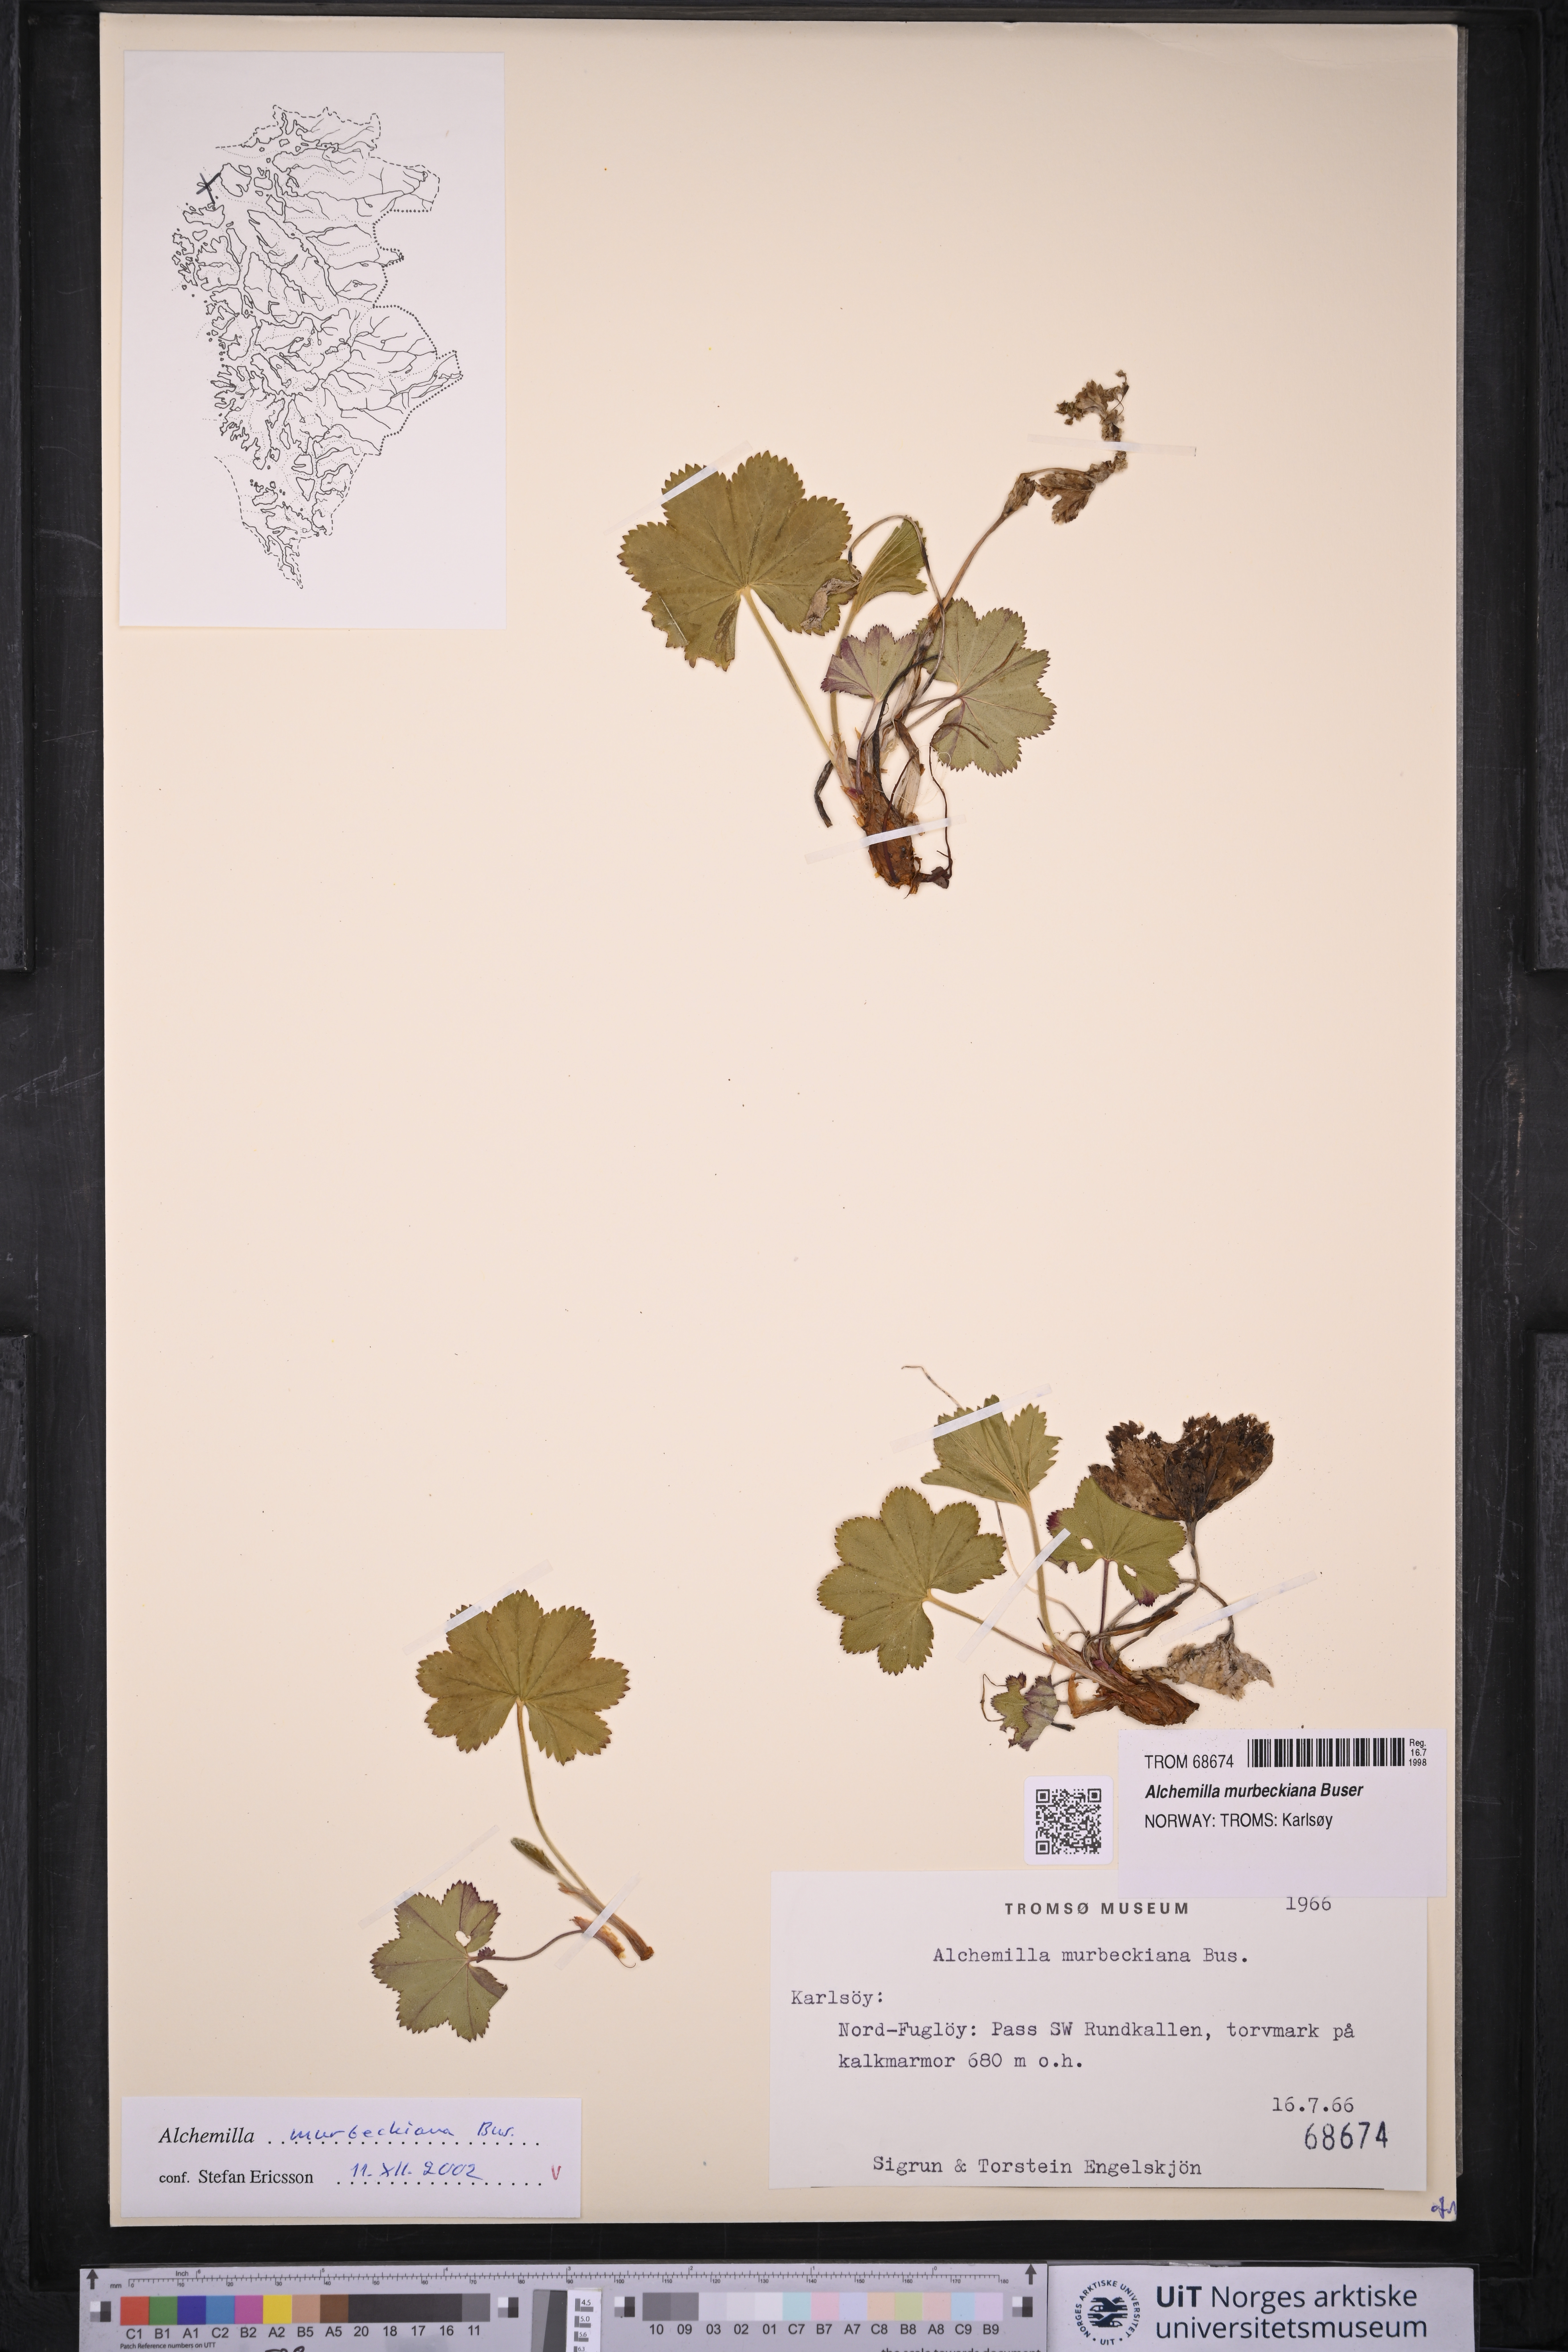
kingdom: Plantae
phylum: Tracheophyta
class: Magnoliopsida
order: Rosales
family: Rosaceae
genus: Alchemilla
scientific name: Alchemilla murbeckiana
